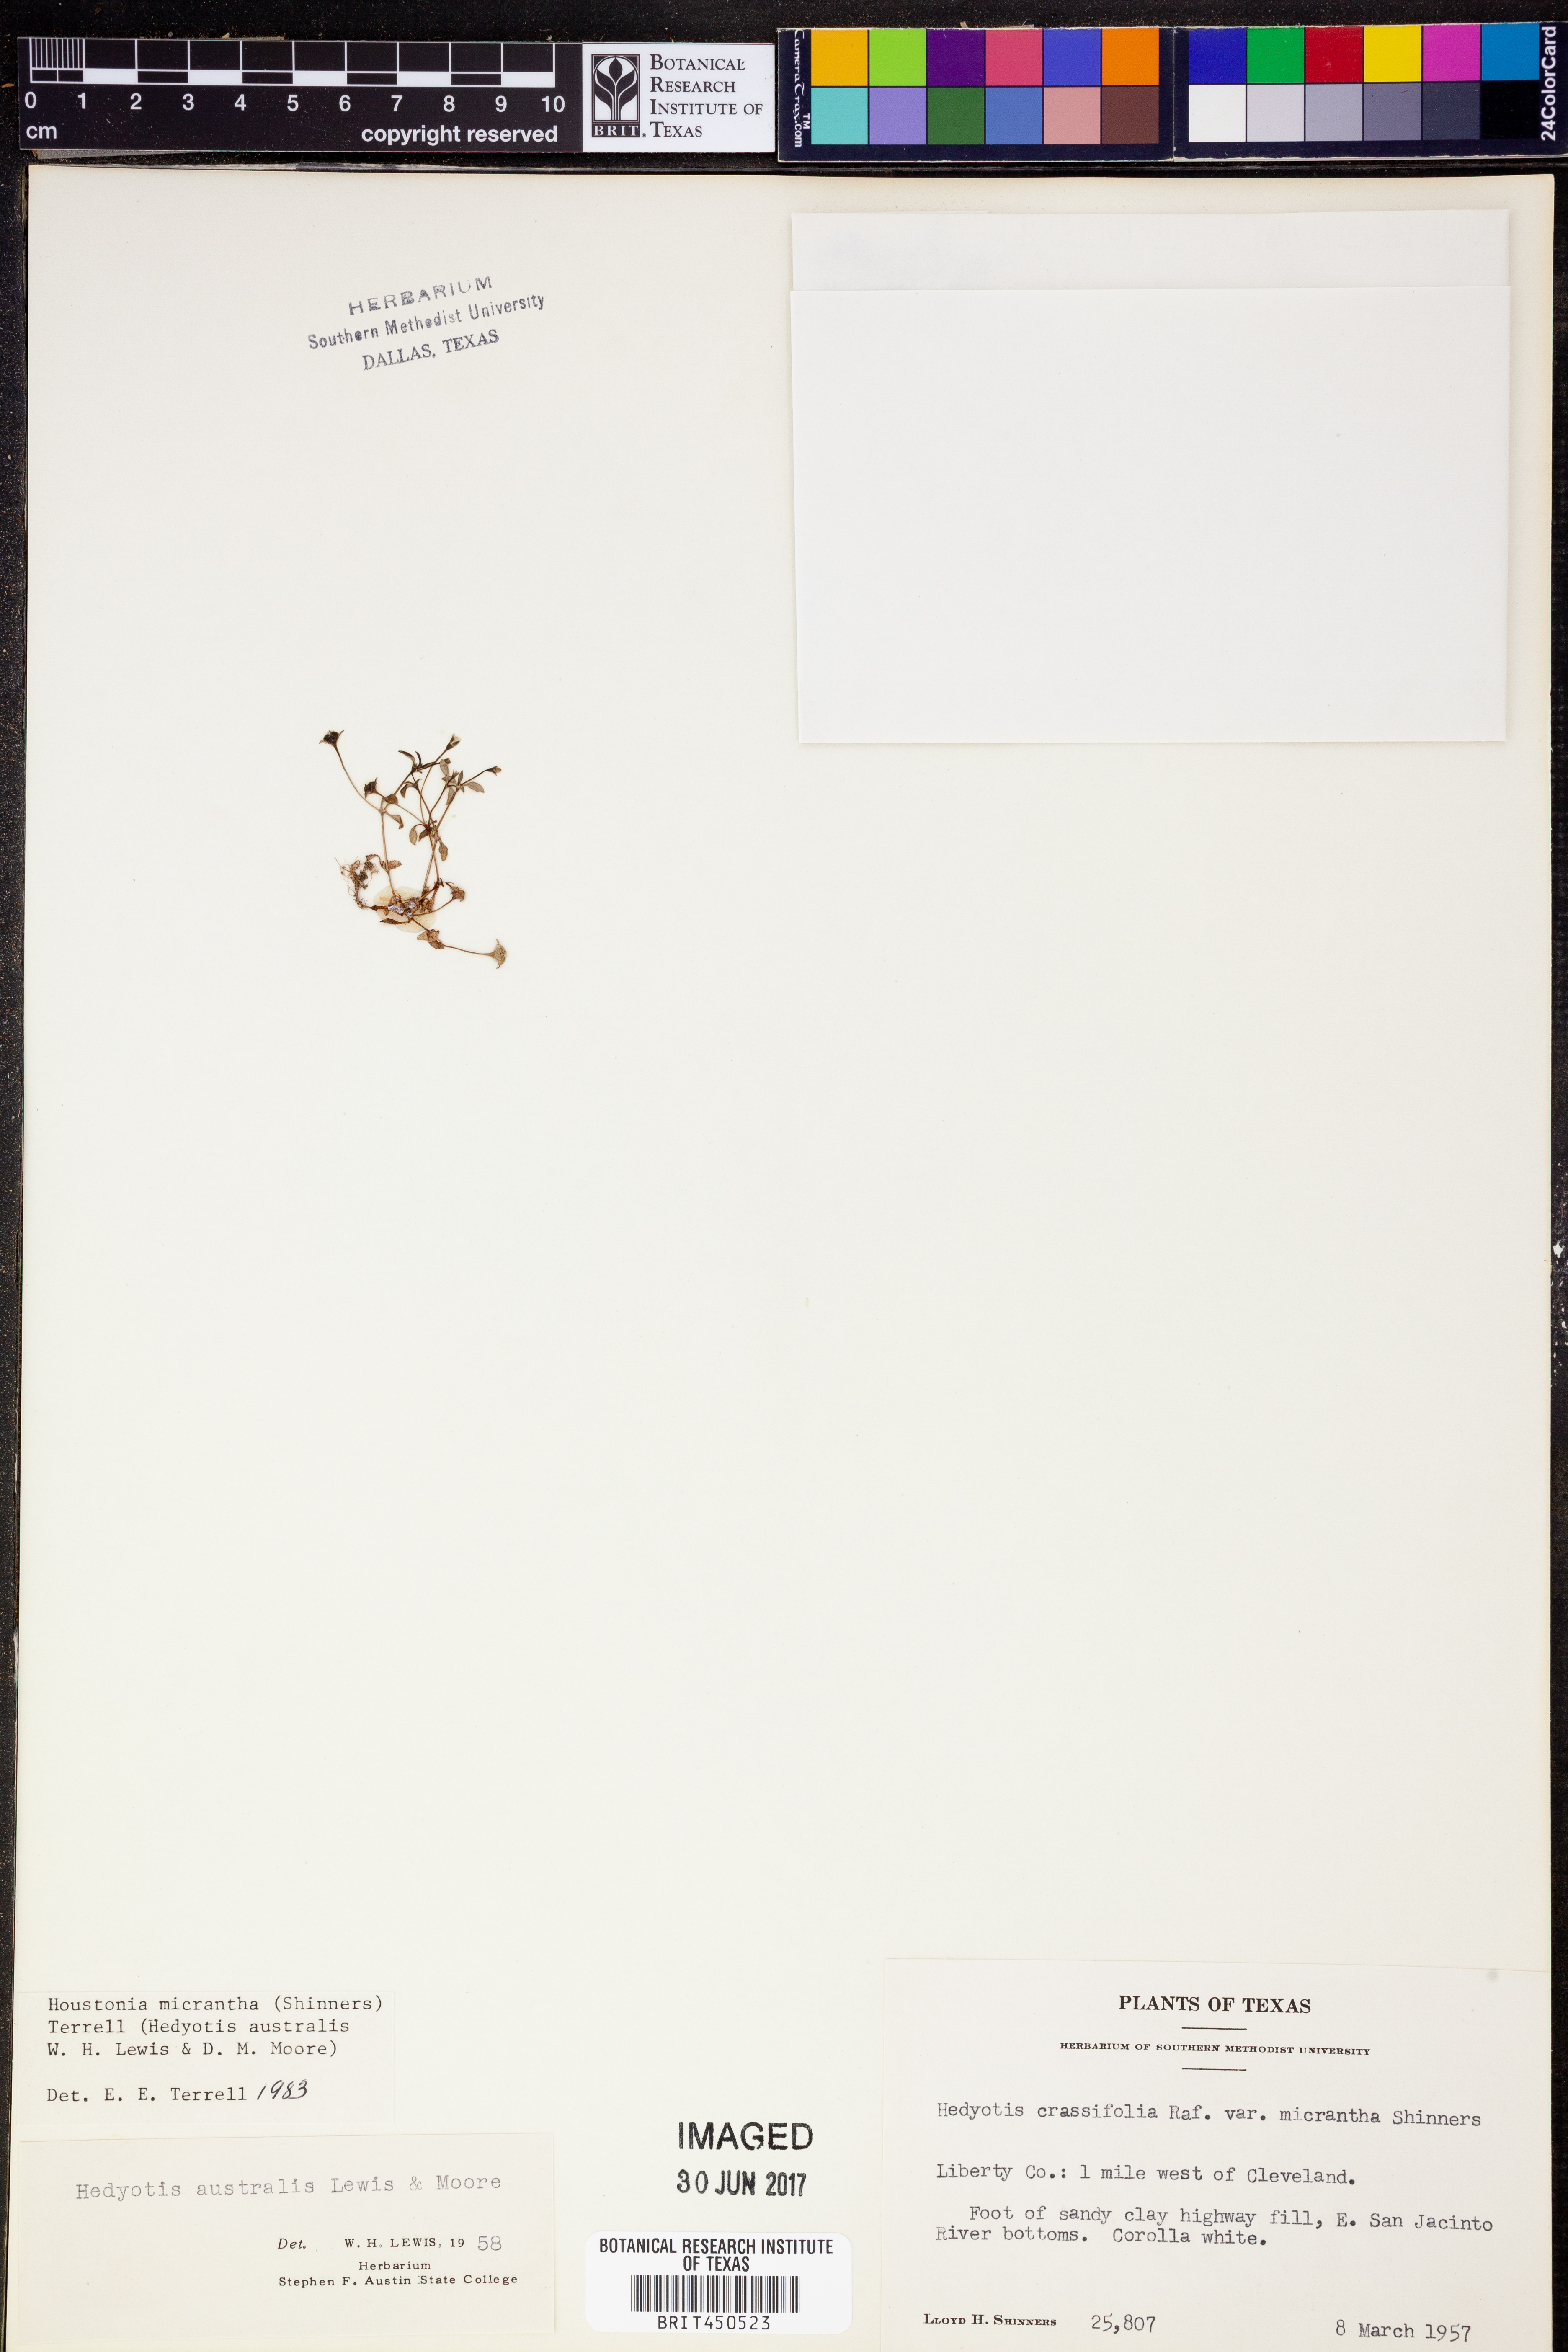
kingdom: Plantae
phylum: Tracheophyta
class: Magnoliopsida
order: Gentianales
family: Rubiaceae
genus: Houstonia
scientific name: Houstonia micrantha
